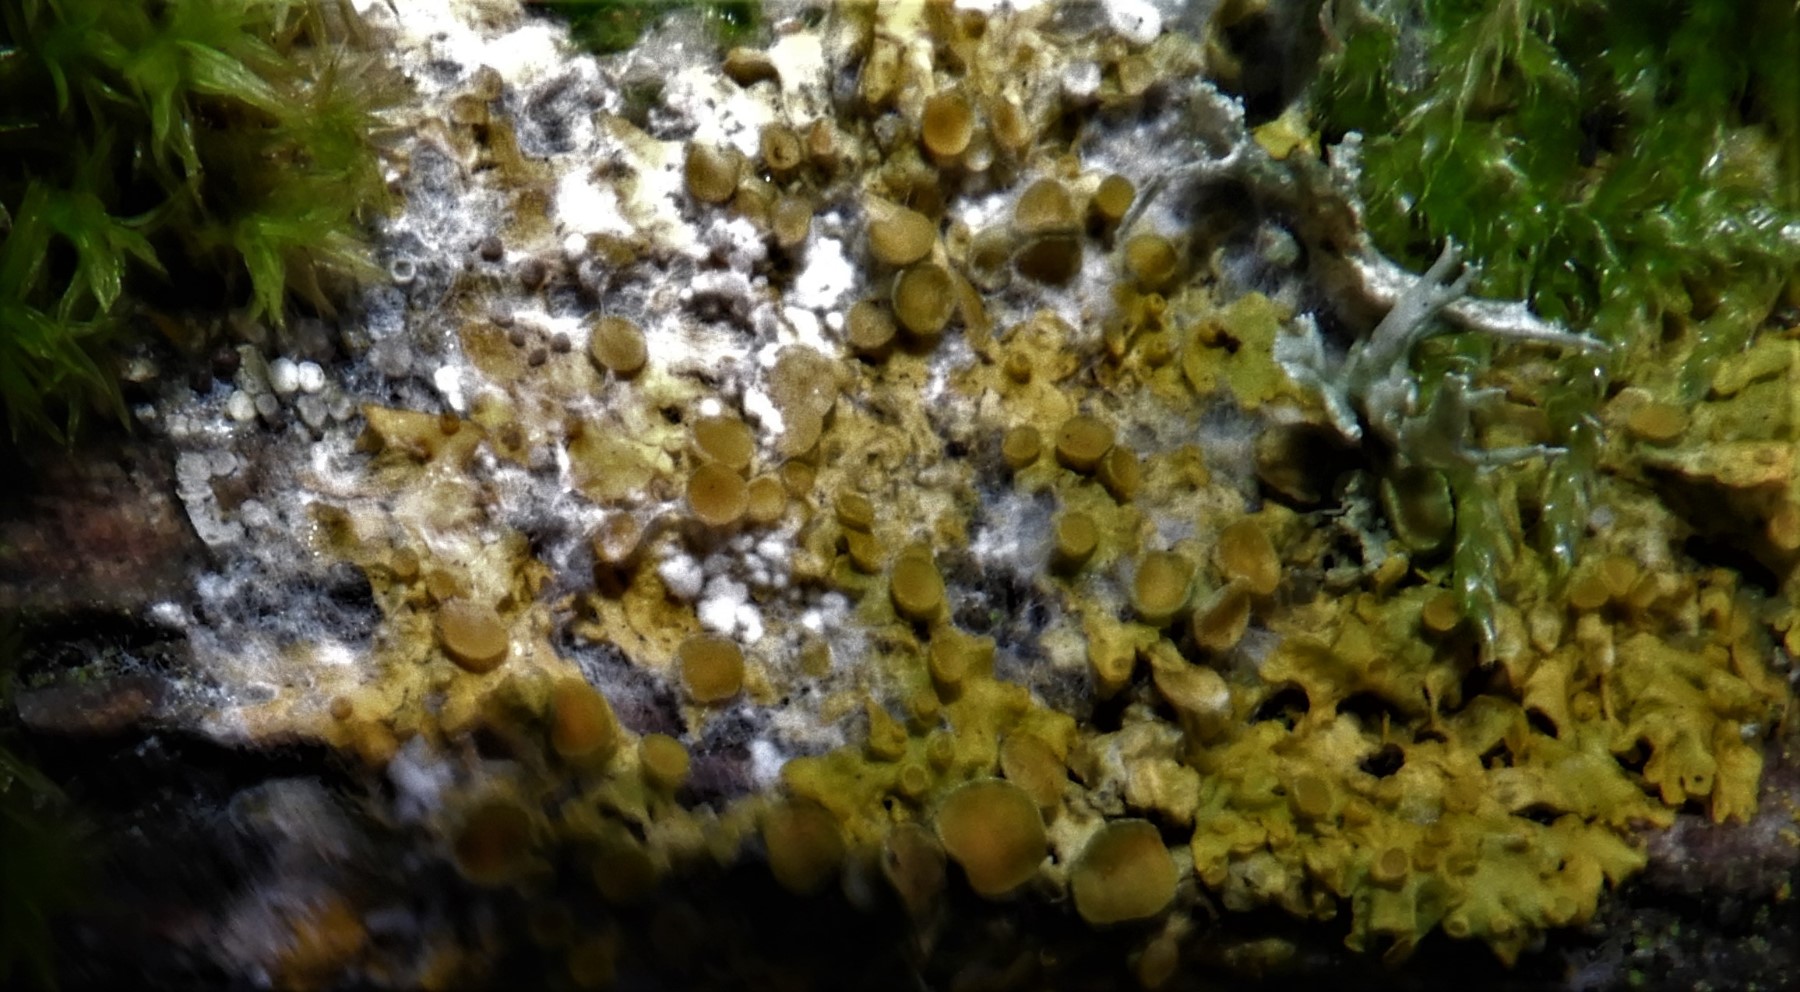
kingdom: Fungi
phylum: Ascomycota
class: Lecanoromycetes
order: Teloschistales
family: Teloschistaceae
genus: Xanthoria
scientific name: Xanthoria parietina
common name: almindelig væggelav
